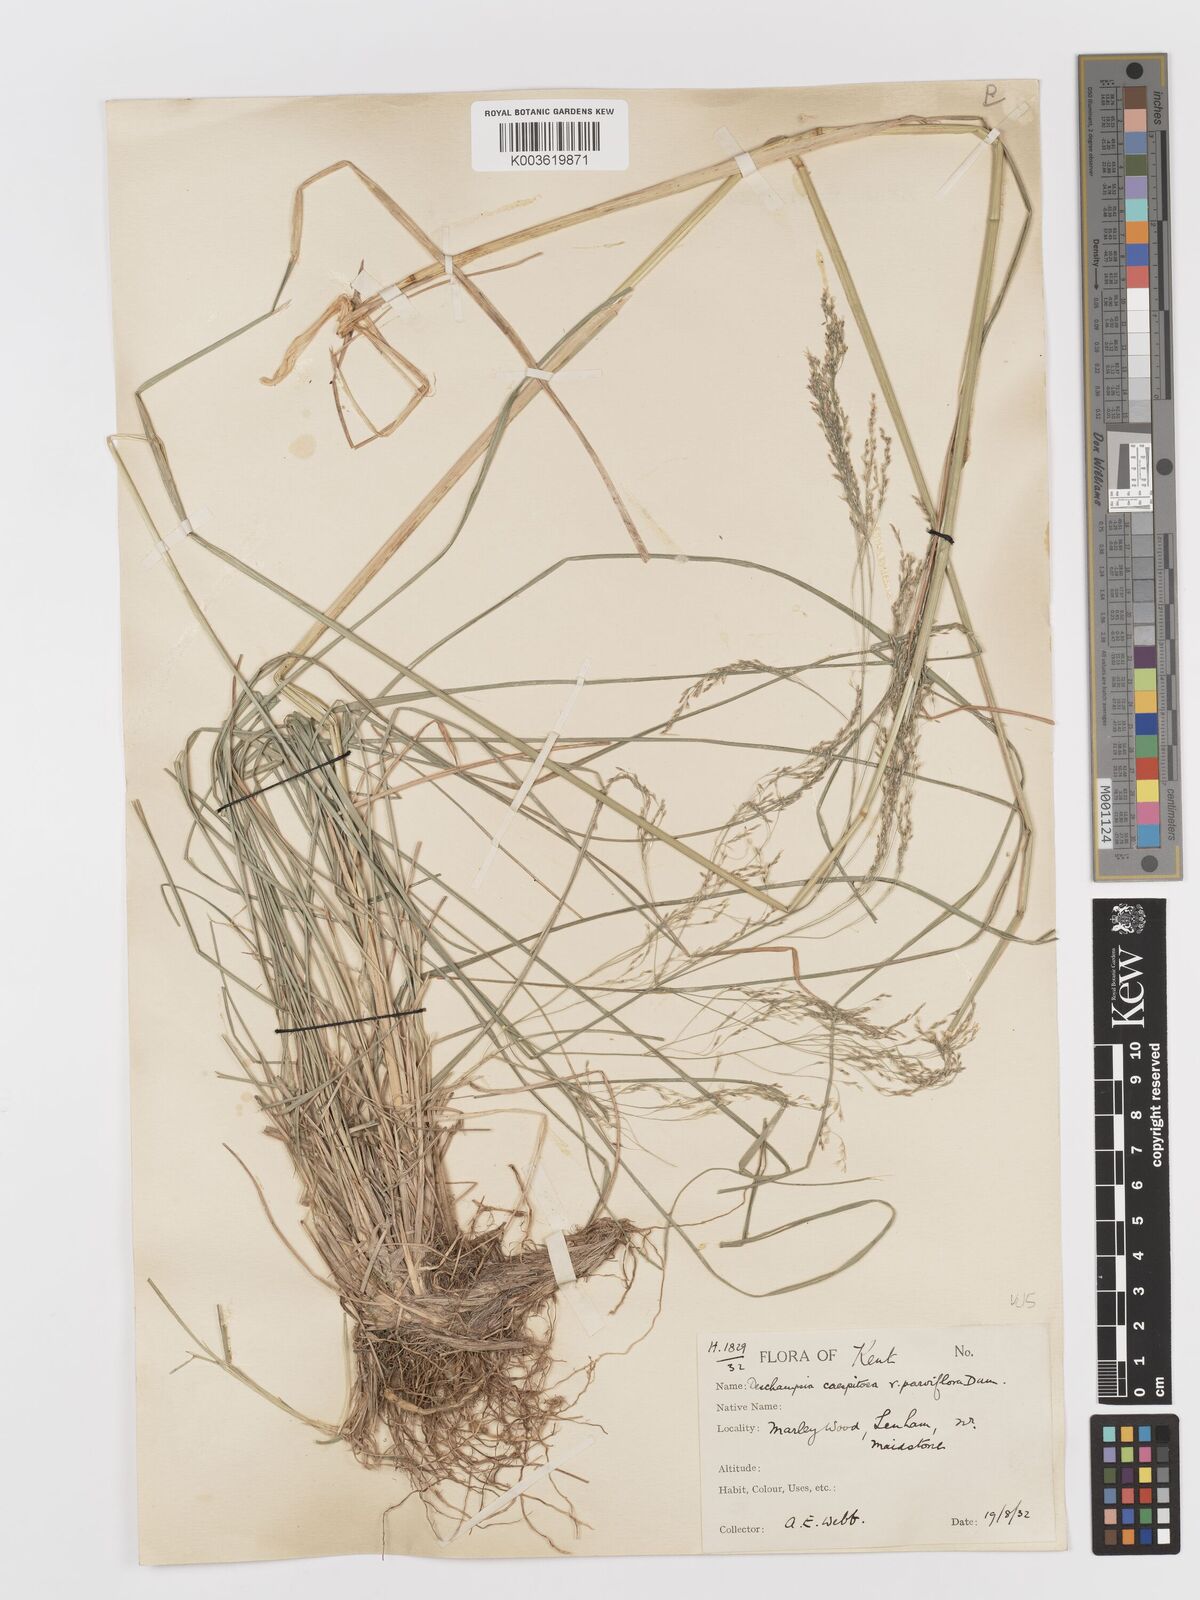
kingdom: Plantae
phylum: Tracheophyta
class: Liliopsida
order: Poales
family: Poaceae
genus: Deschampsia
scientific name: Deschampsia cespitosa
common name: Tufted hair-grass
